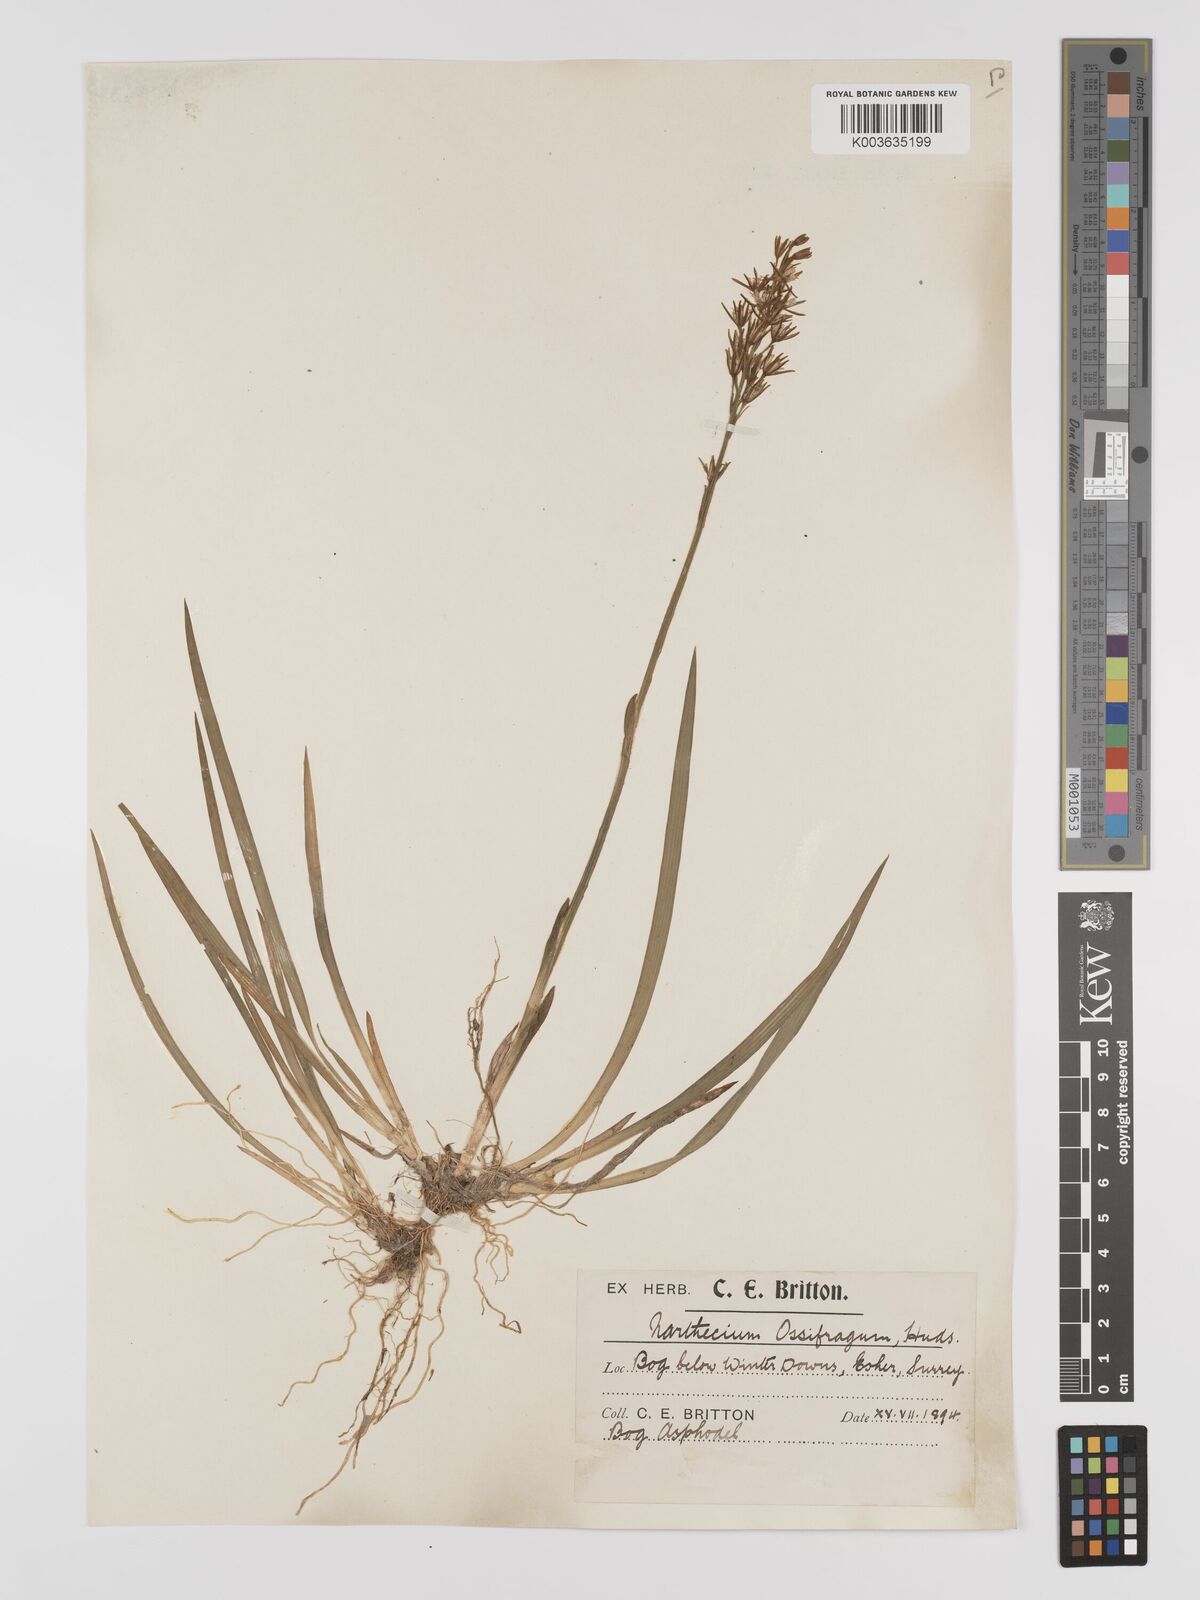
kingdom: Plantae
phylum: Tracheophyta
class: Liliopsida
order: Dioscoreales
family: Nartheciaceae
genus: Narthecium
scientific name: Narthecium
